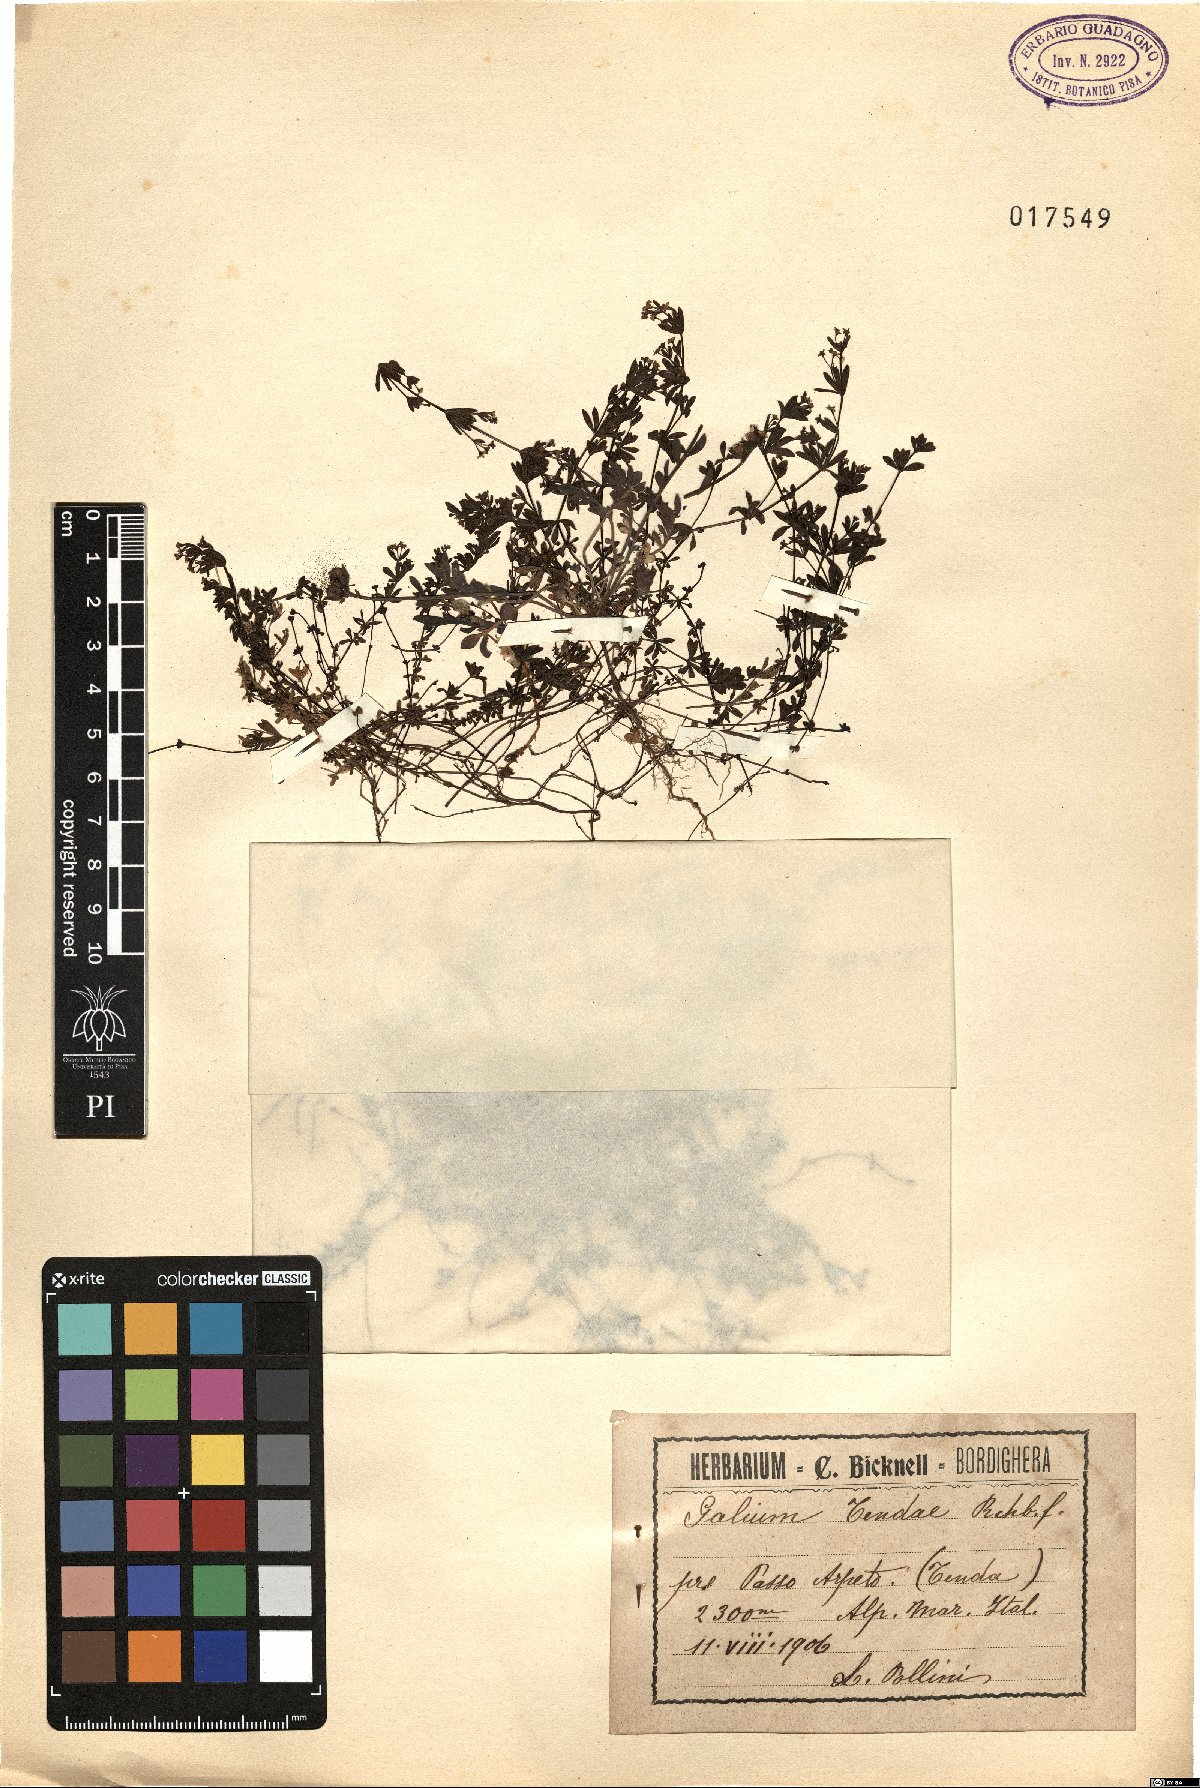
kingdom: Plantae
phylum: Tracheophyta
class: Magnoliopsida
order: Gentianales
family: Rubiaceae
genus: Galium
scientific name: Galium tendae
